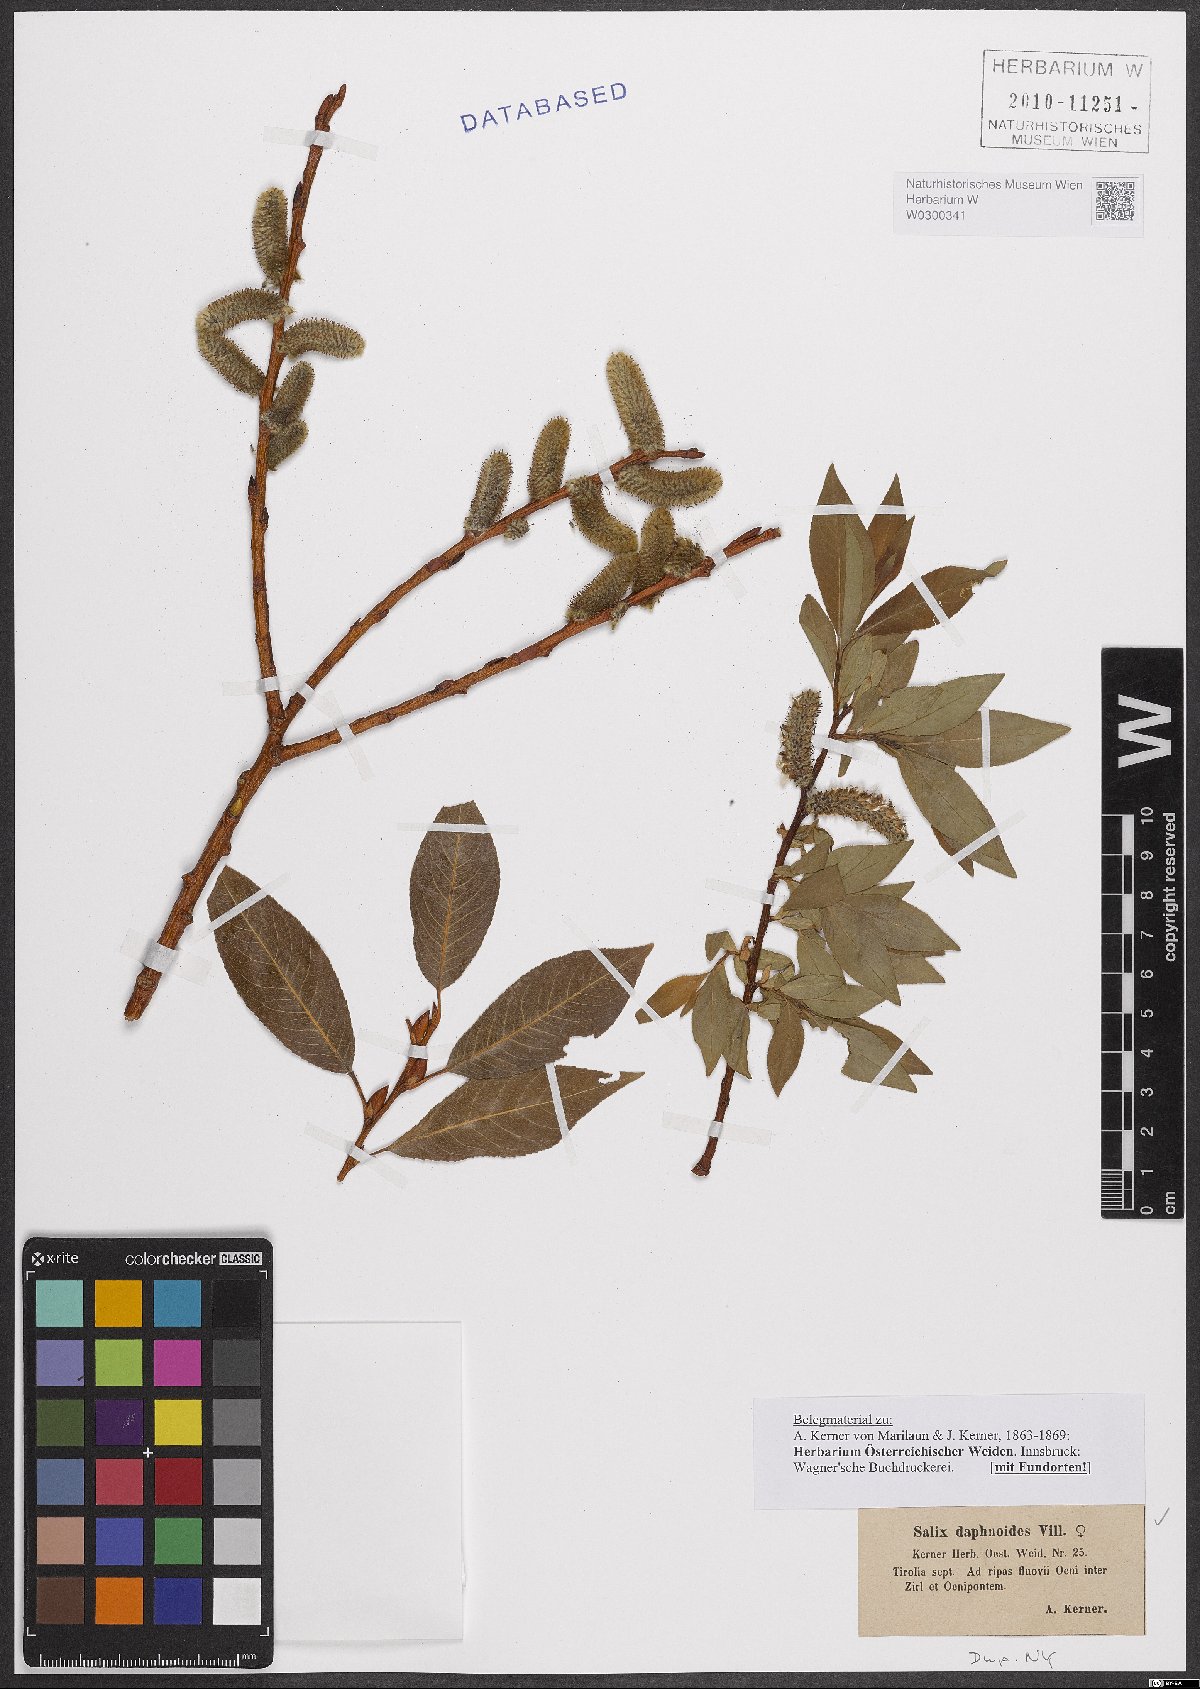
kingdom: Plantae
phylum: Tracheophyta
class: Magnoliopsida
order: Malpighiales
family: Salicaceae
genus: Salix
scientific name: Salix daphnoides
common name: European violet-willow
